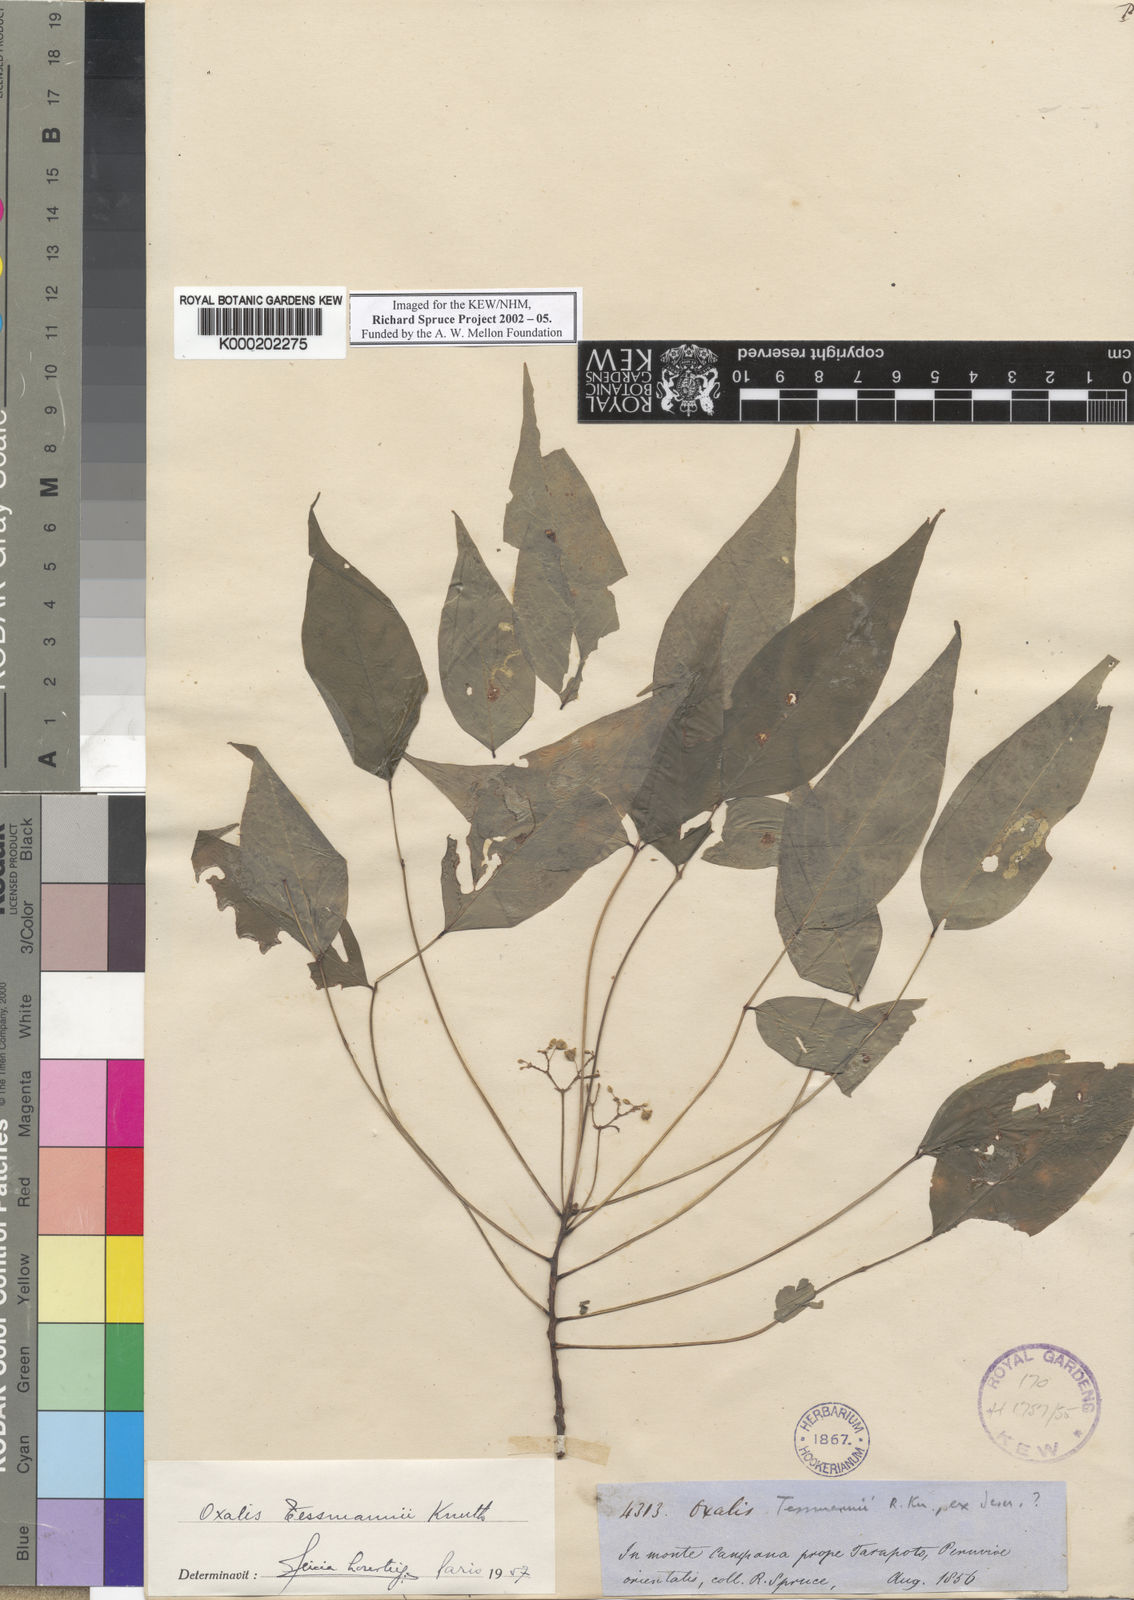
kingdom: Plantae
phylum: Tracheophyta
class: Magnoliopsida
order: Oxalidales
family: Oxalidaceae
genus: Oxalis
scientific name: Oxalis tessmannii
